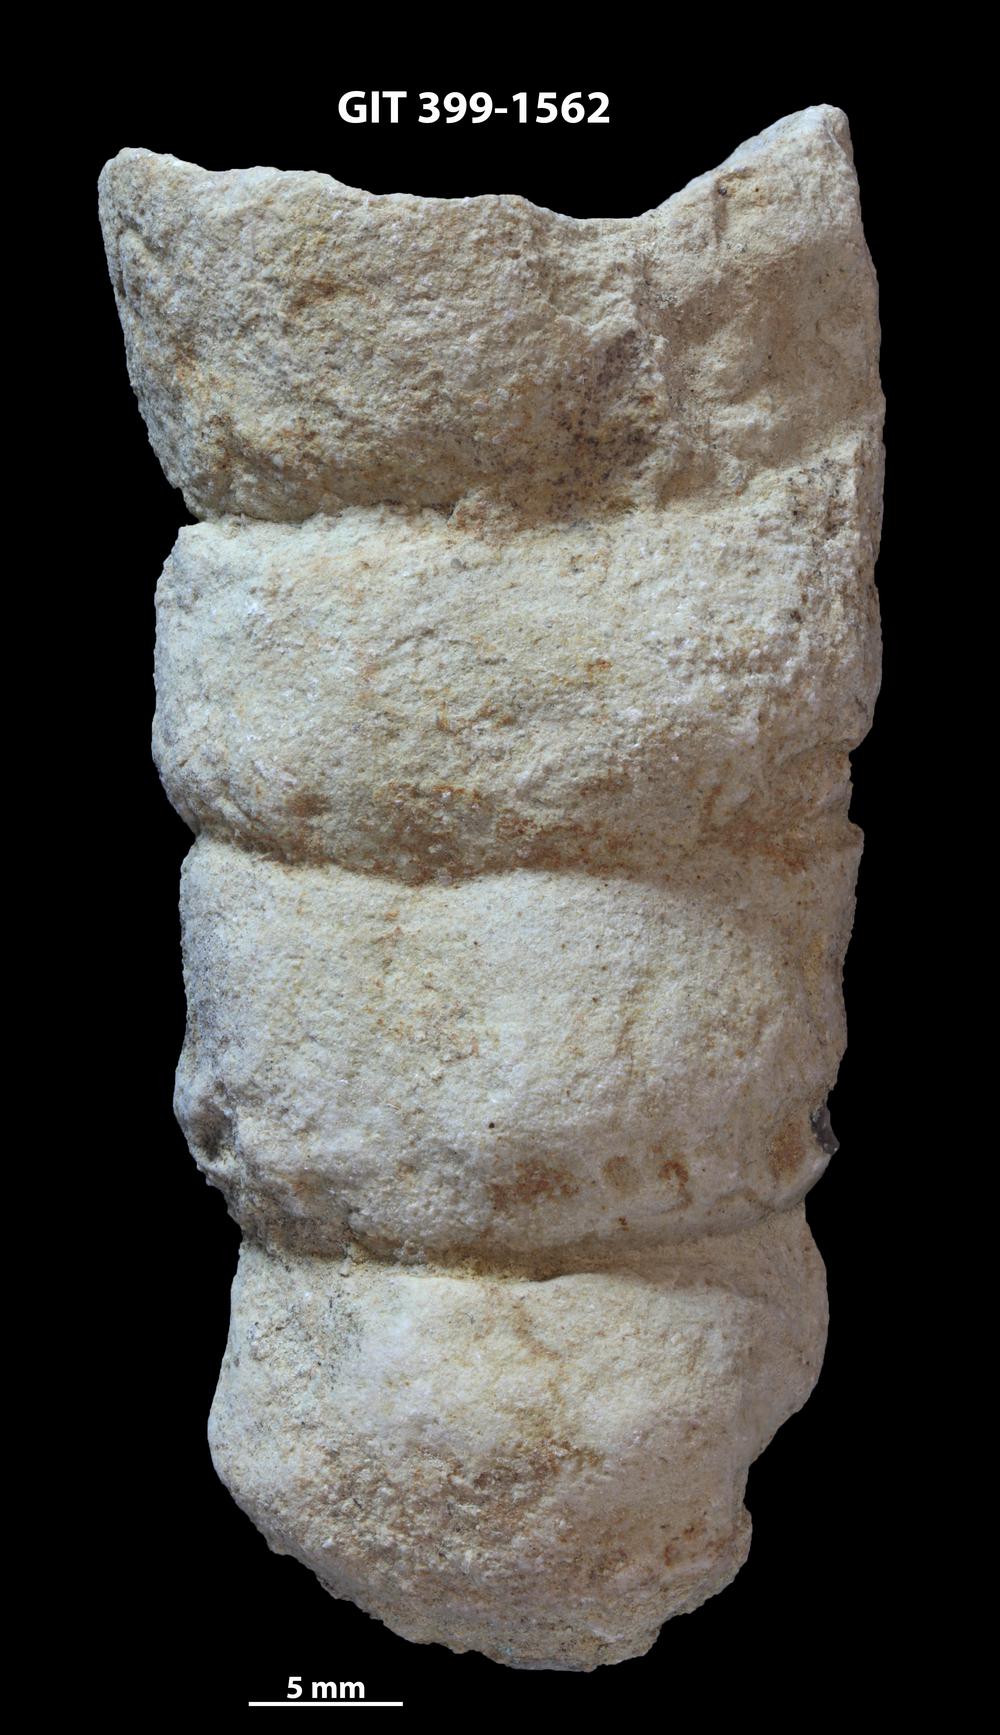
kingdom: Animalia
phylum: Mollusca
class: Cephalopoda
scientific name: Cephalopoda
